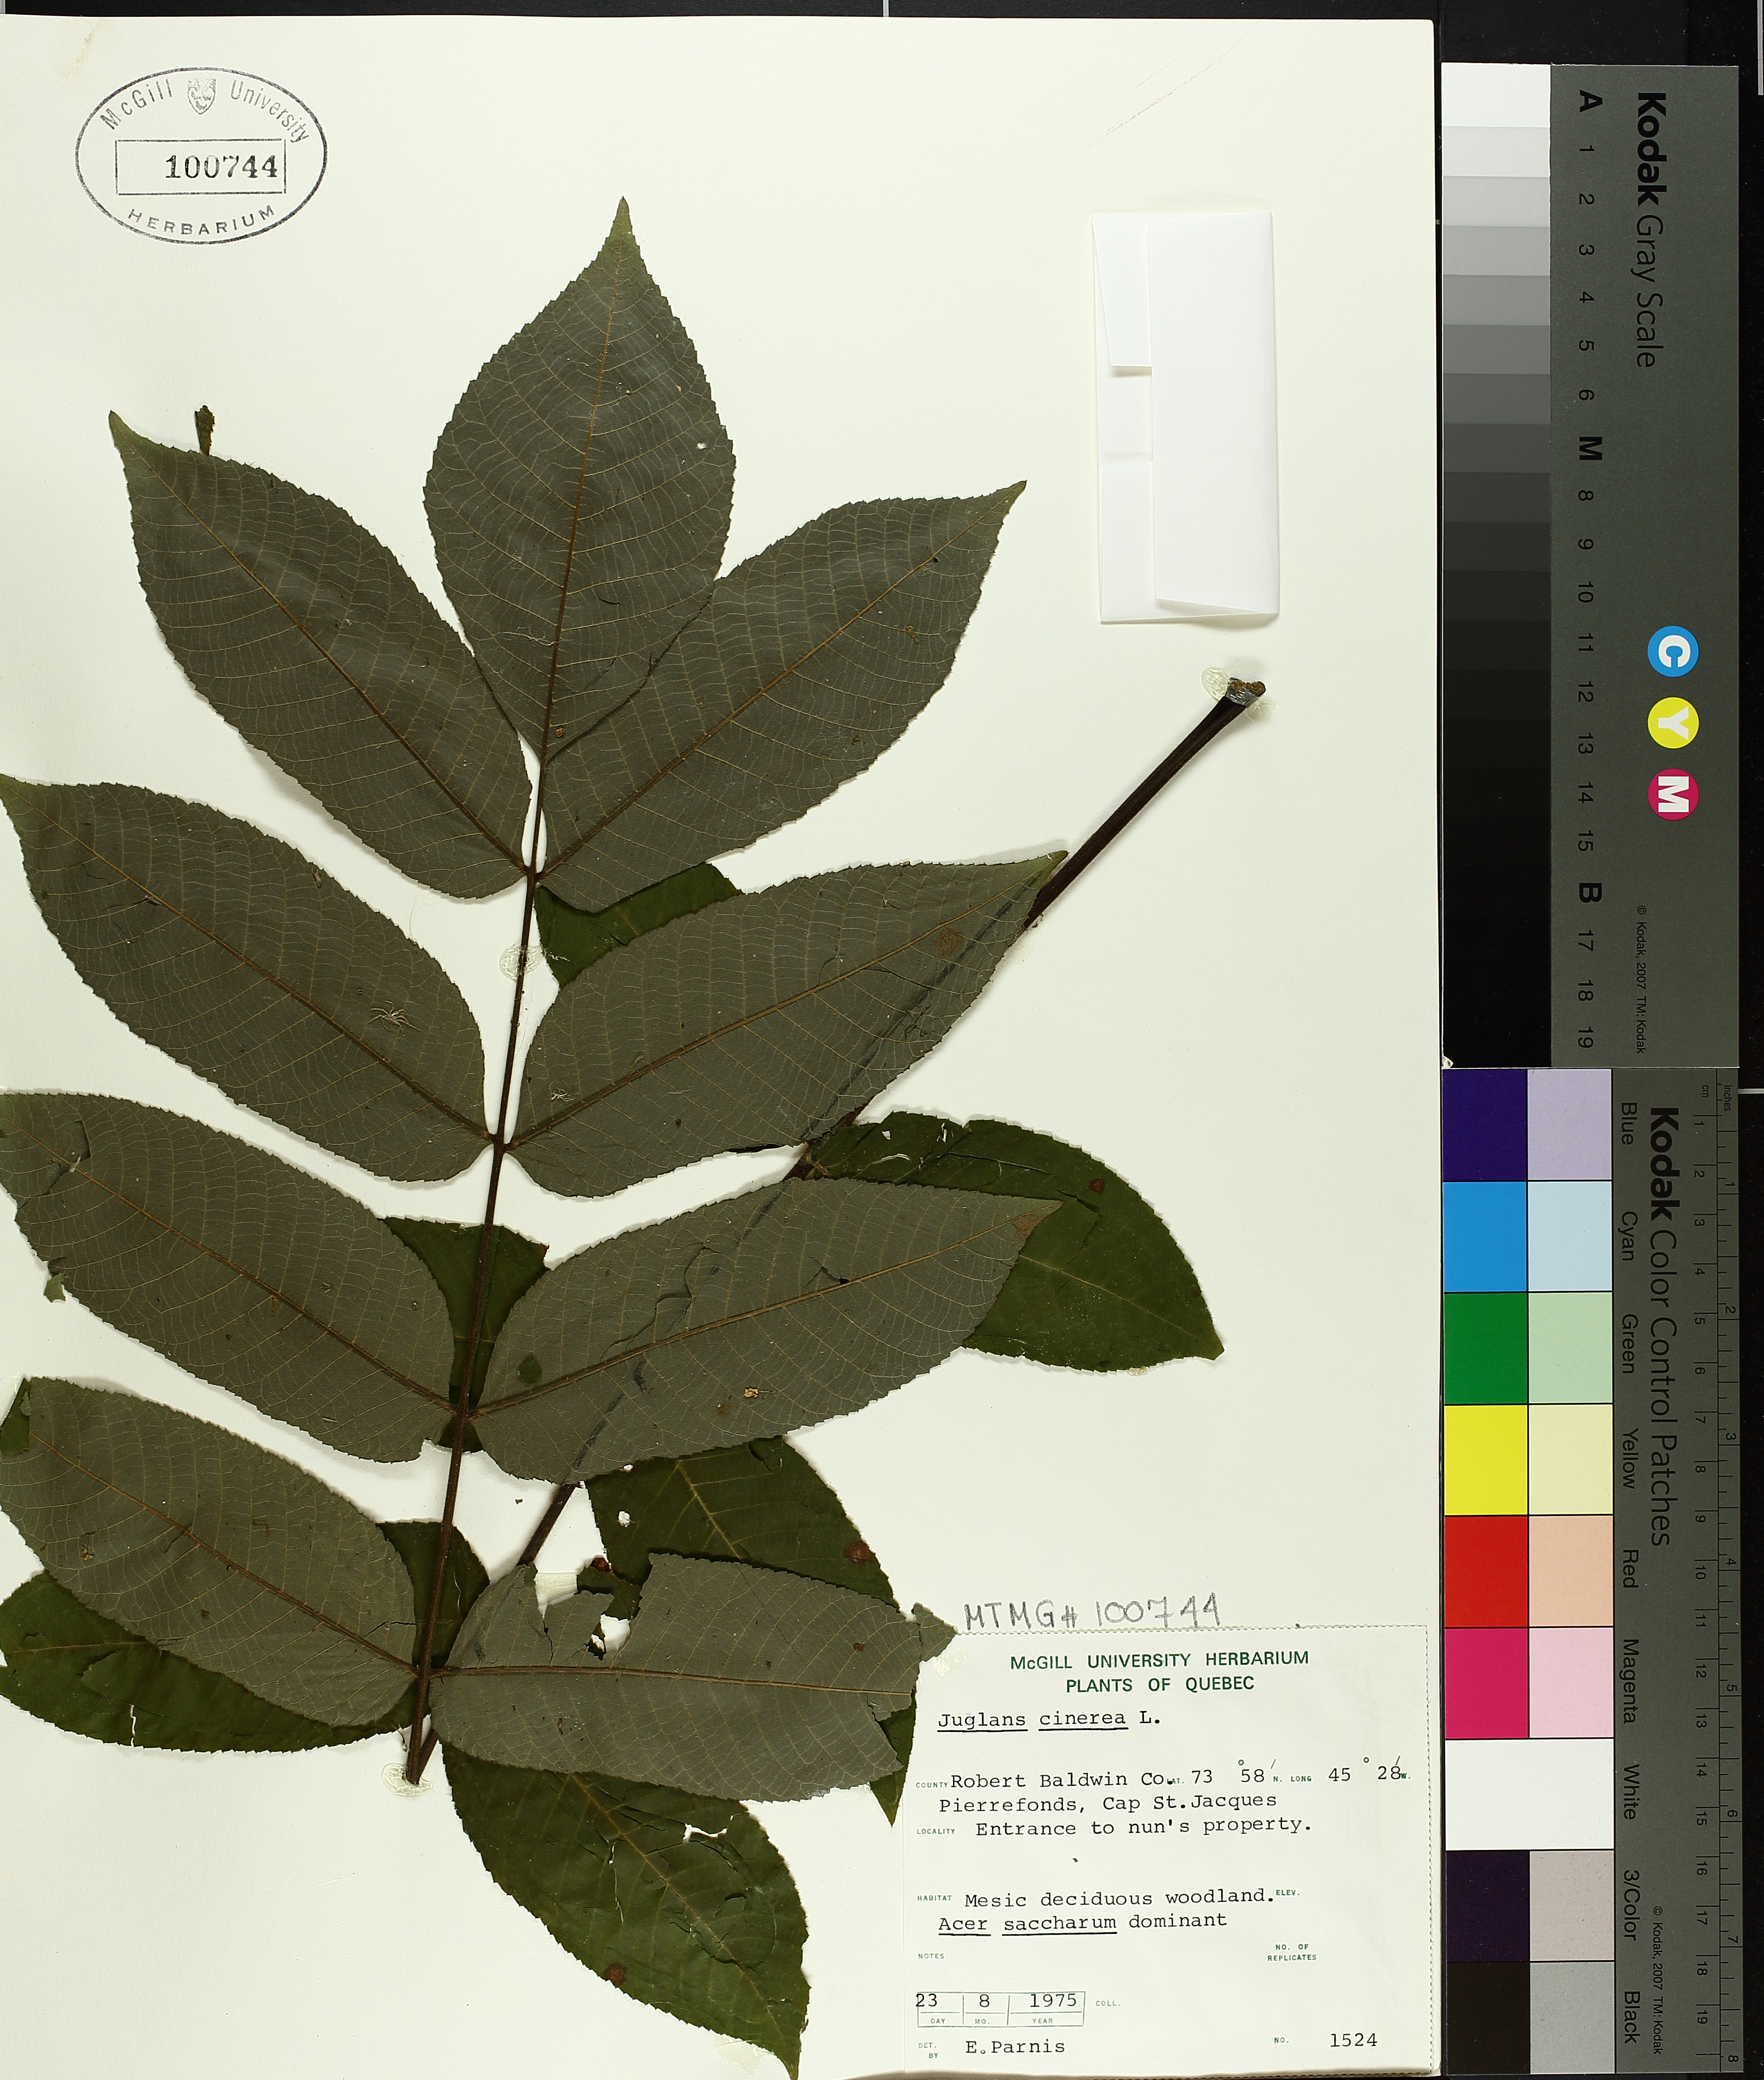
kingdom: Plantae
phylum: Tracheophyta
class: Magnoliopsida
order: Fagales
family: Juglandaceae
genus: Juglans
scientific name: Juglans cinerea
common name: Butternut
